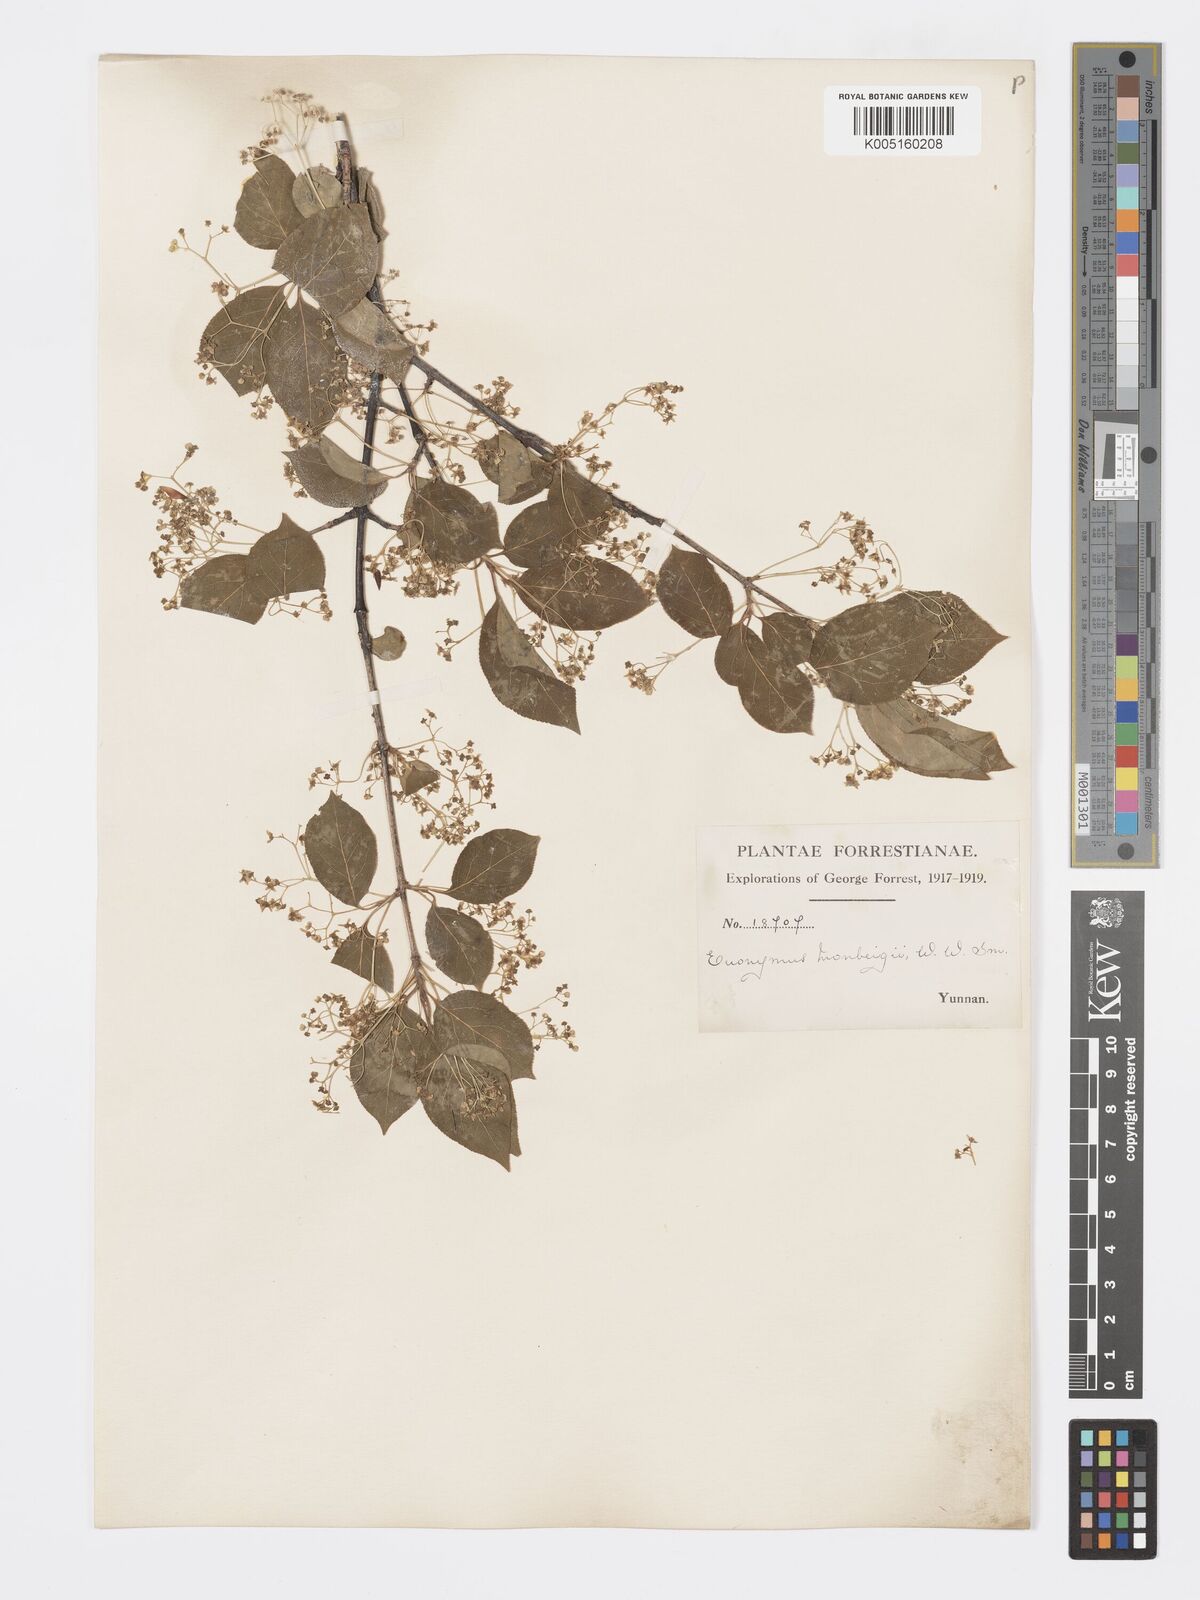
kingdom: Plantae
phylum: Tracheophyta
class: Magnoliopsida
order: Celastrales
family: Celastraceae
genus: Euonymus
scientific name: Euonymus sanguineus
